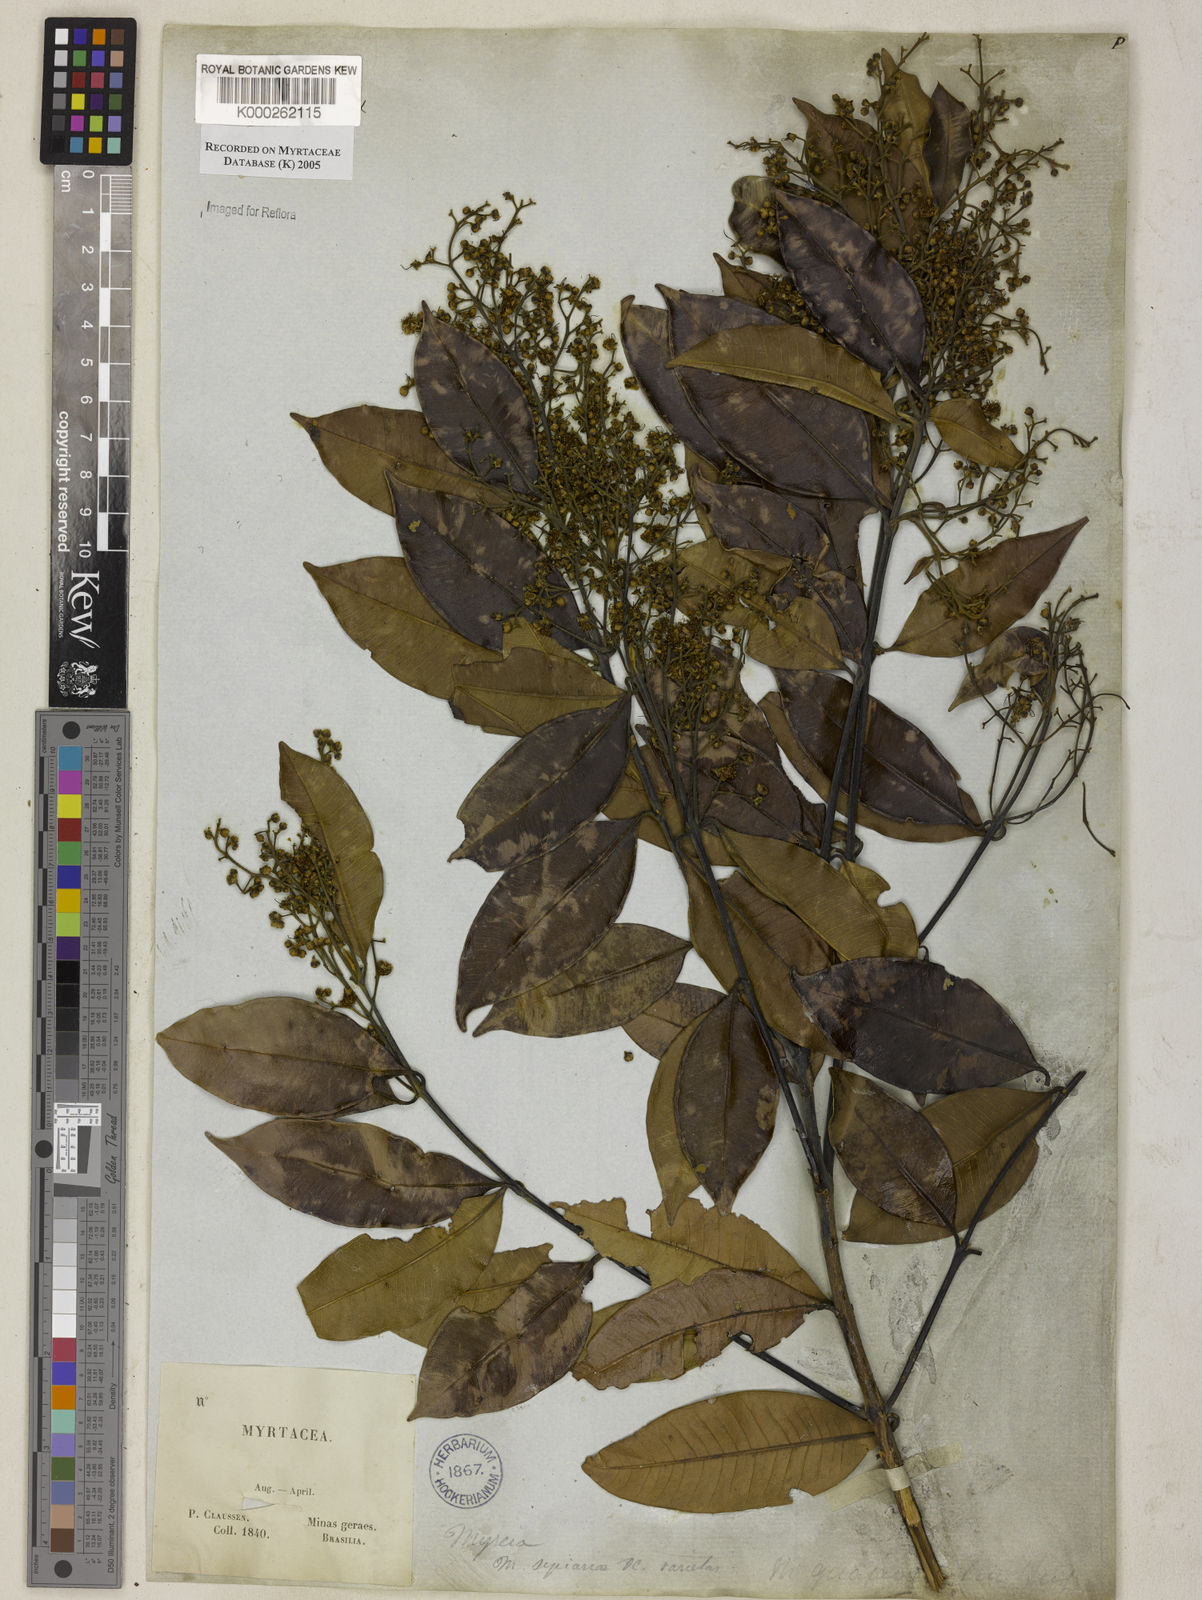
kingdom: Plantae
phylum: Tracheophyta
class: Magnoliopsida
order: Myrtales
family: Myrtaceae
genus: Myrcia
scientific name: Myrcia splendens
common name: Surinam cherry
